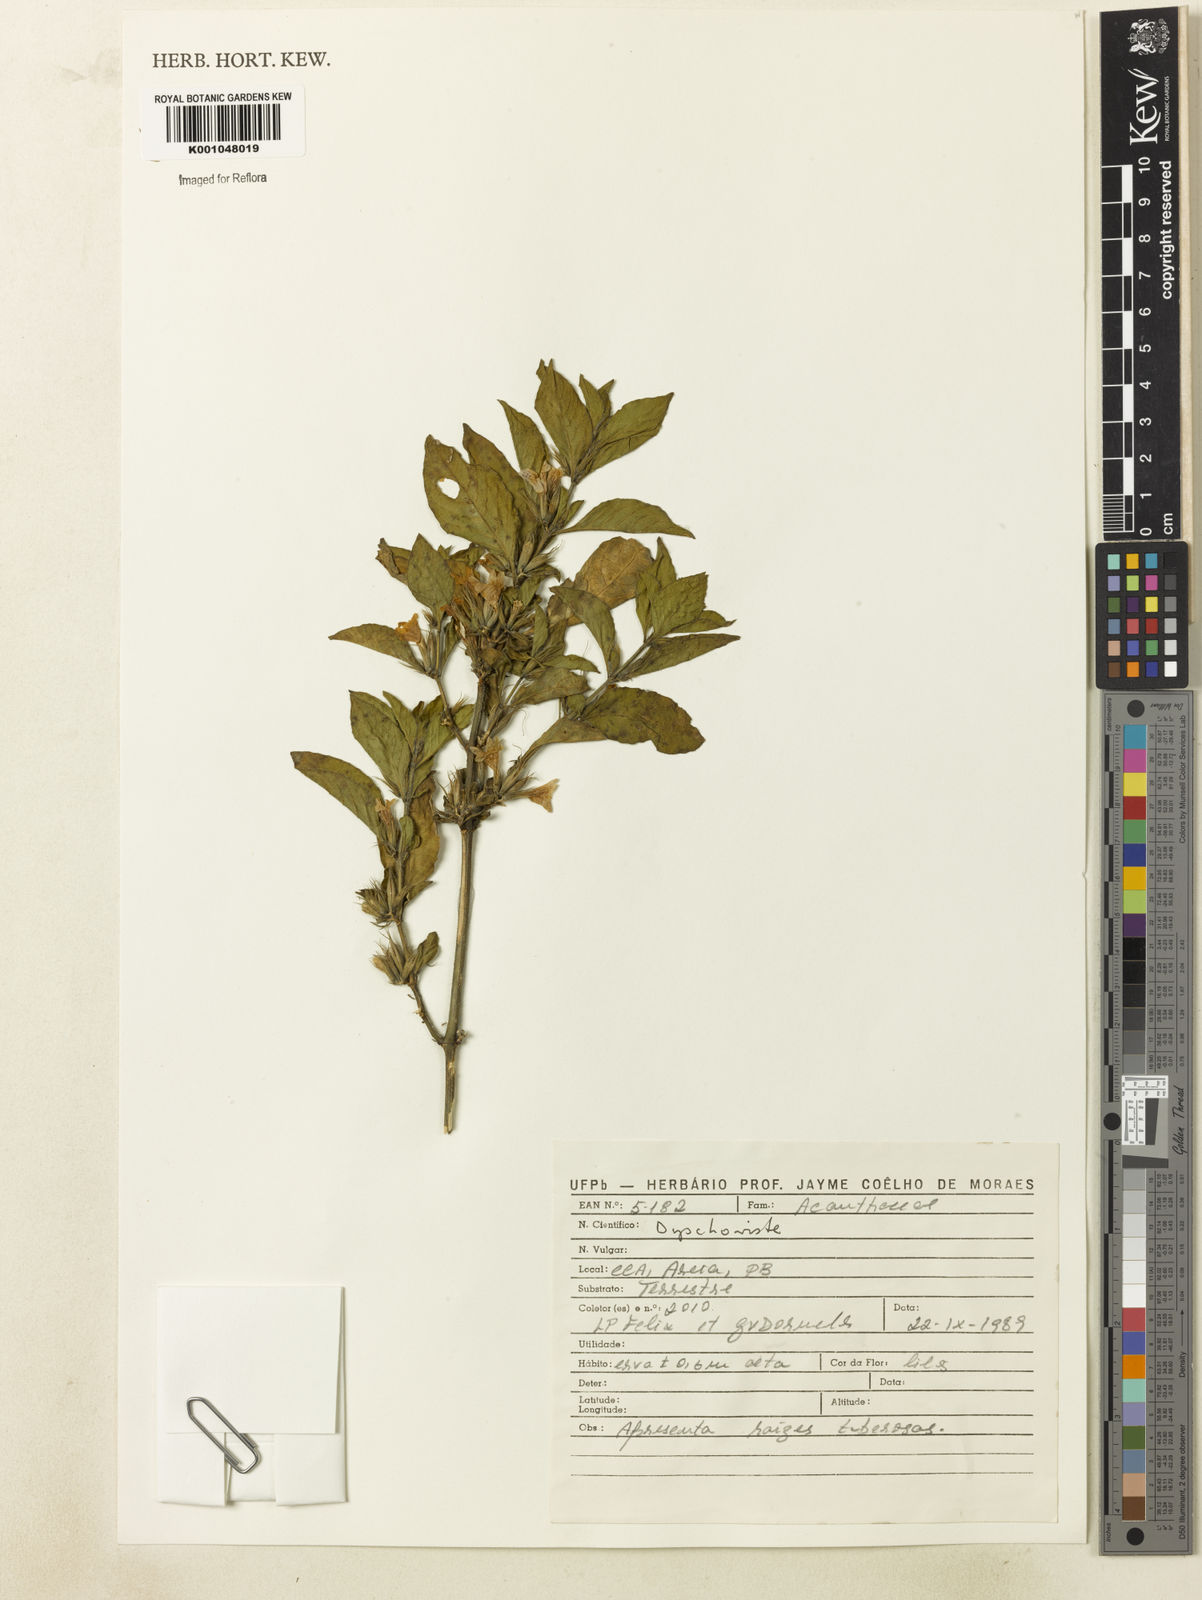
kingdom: Plantae
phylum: Tracheophyta
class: Magnoliopsida
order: Lamiales
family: Acanthaceae
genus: Dyschoriste
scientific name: Dyschoriste
